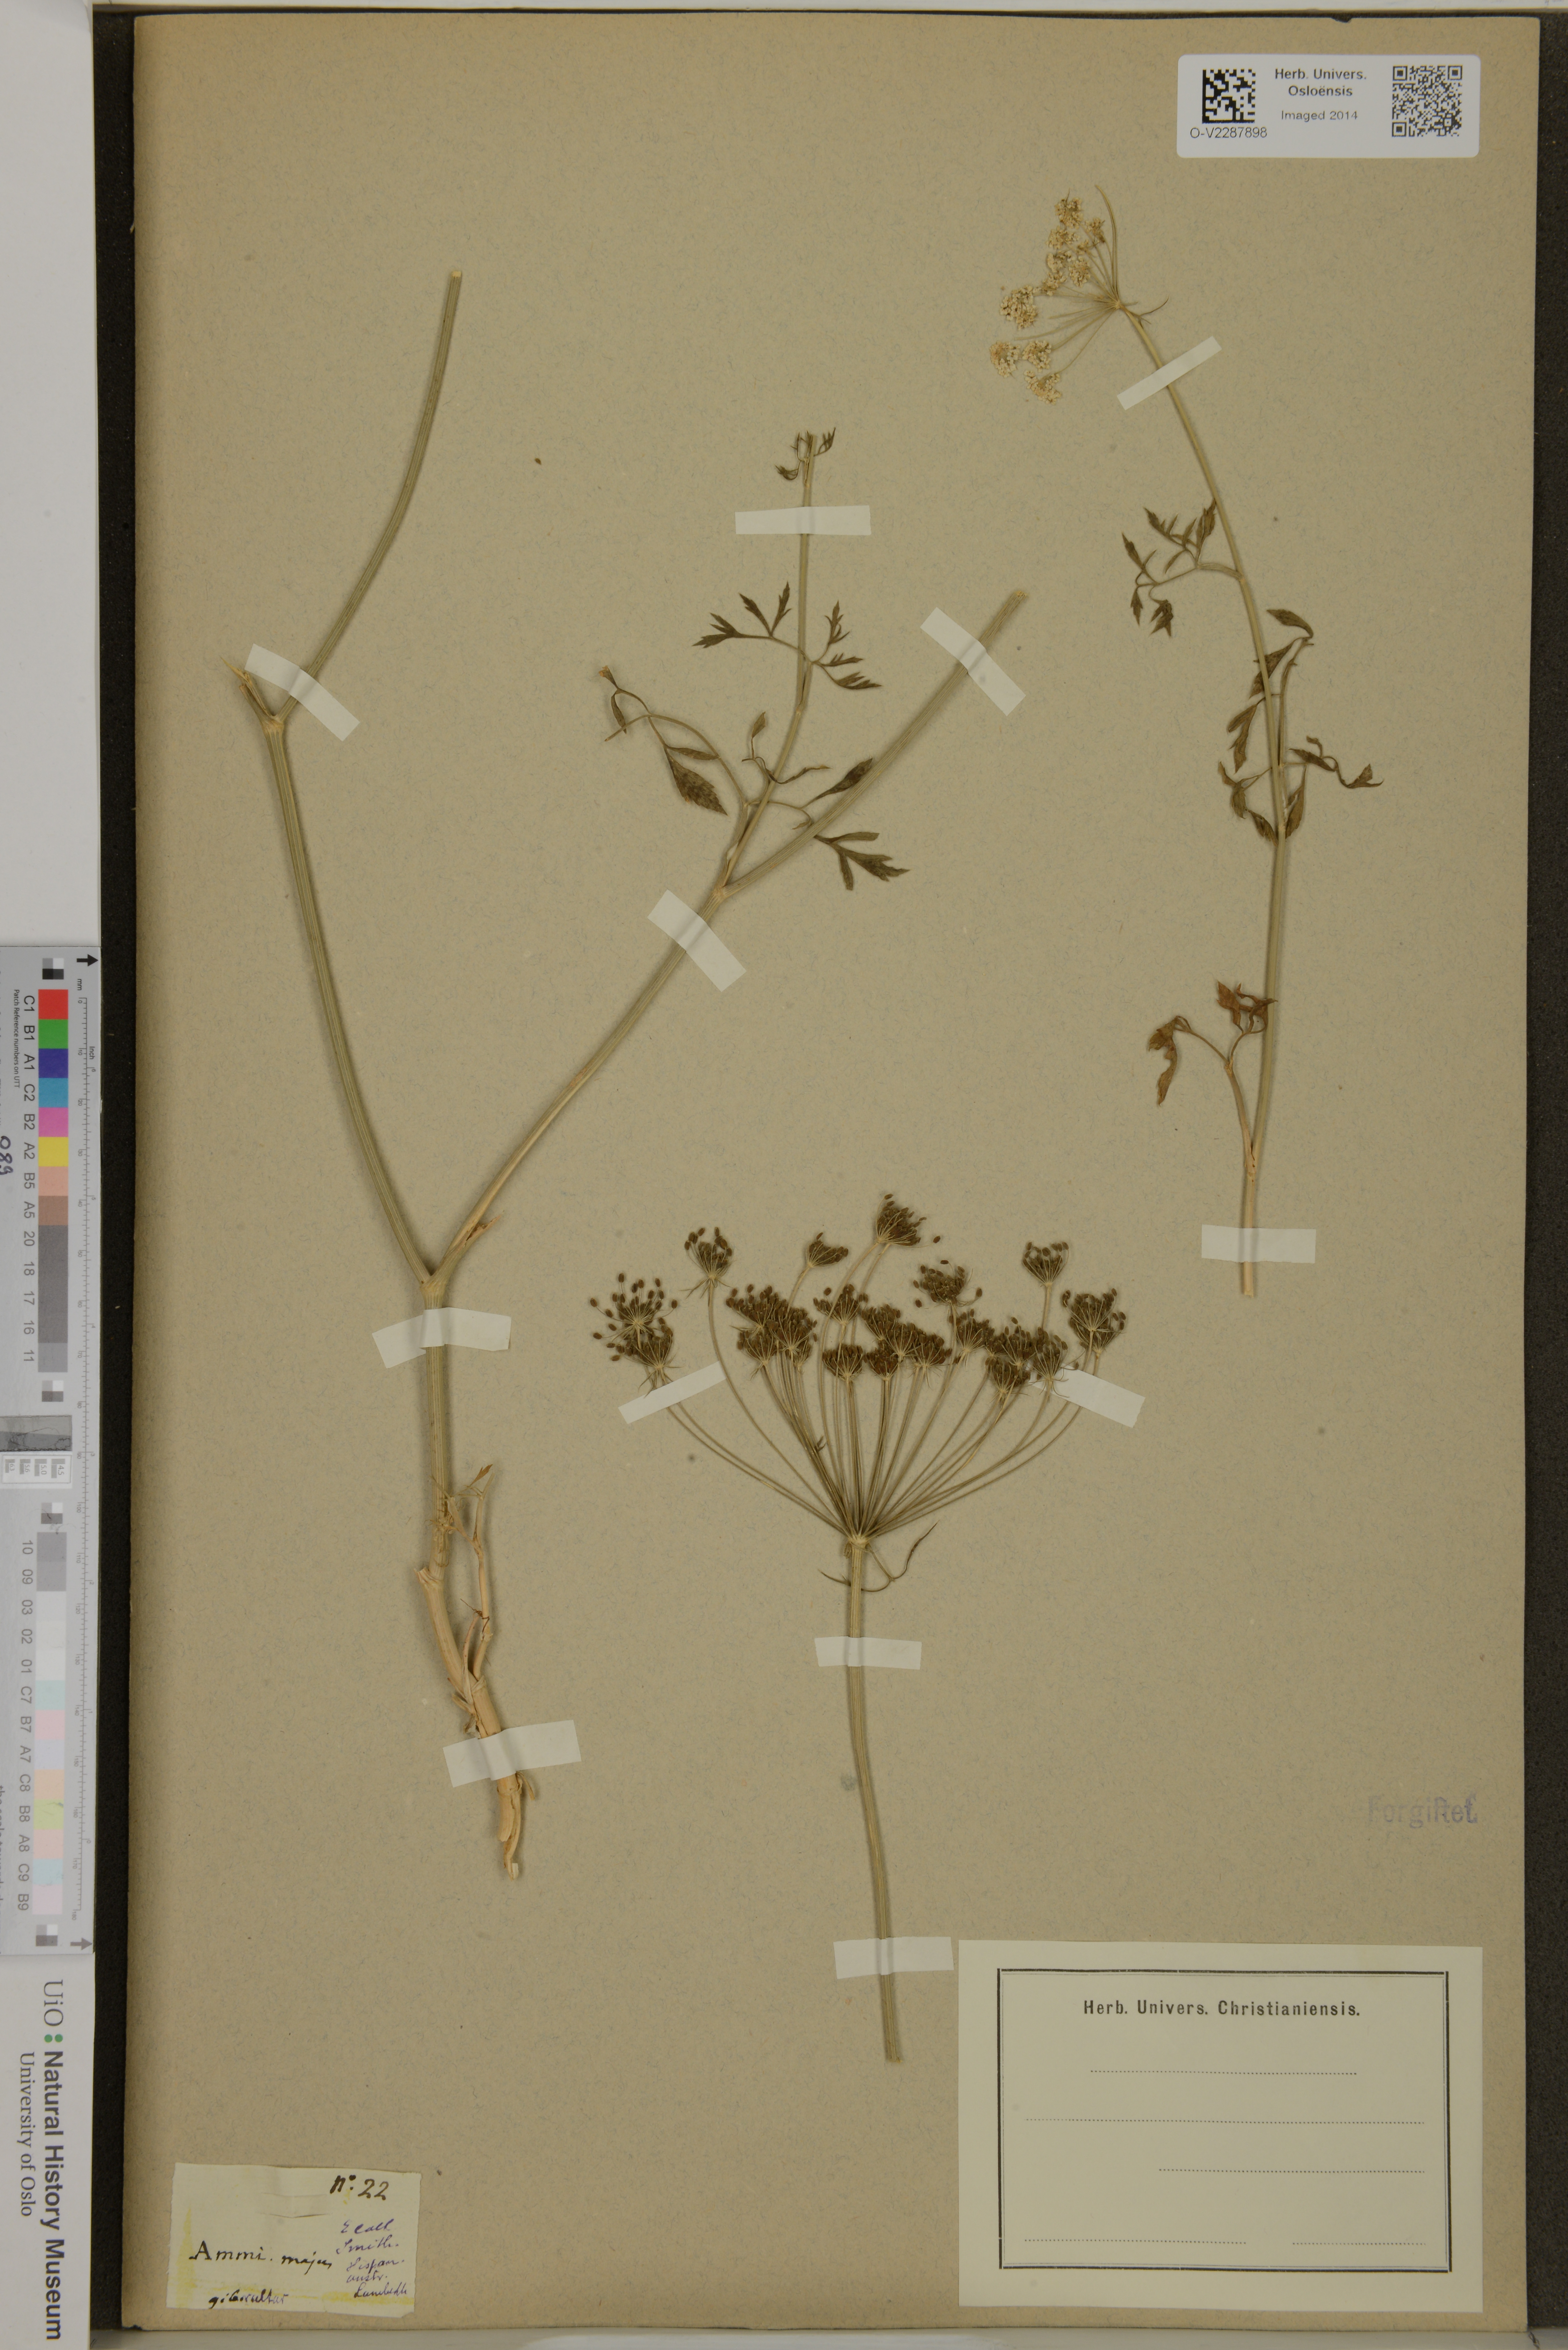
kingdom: Plantae
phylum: Tracheophyta
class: Magnoliopsida
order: Apiales
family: Apiaceae
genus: Ammi
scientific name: Ammi majus
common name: Bullwort
